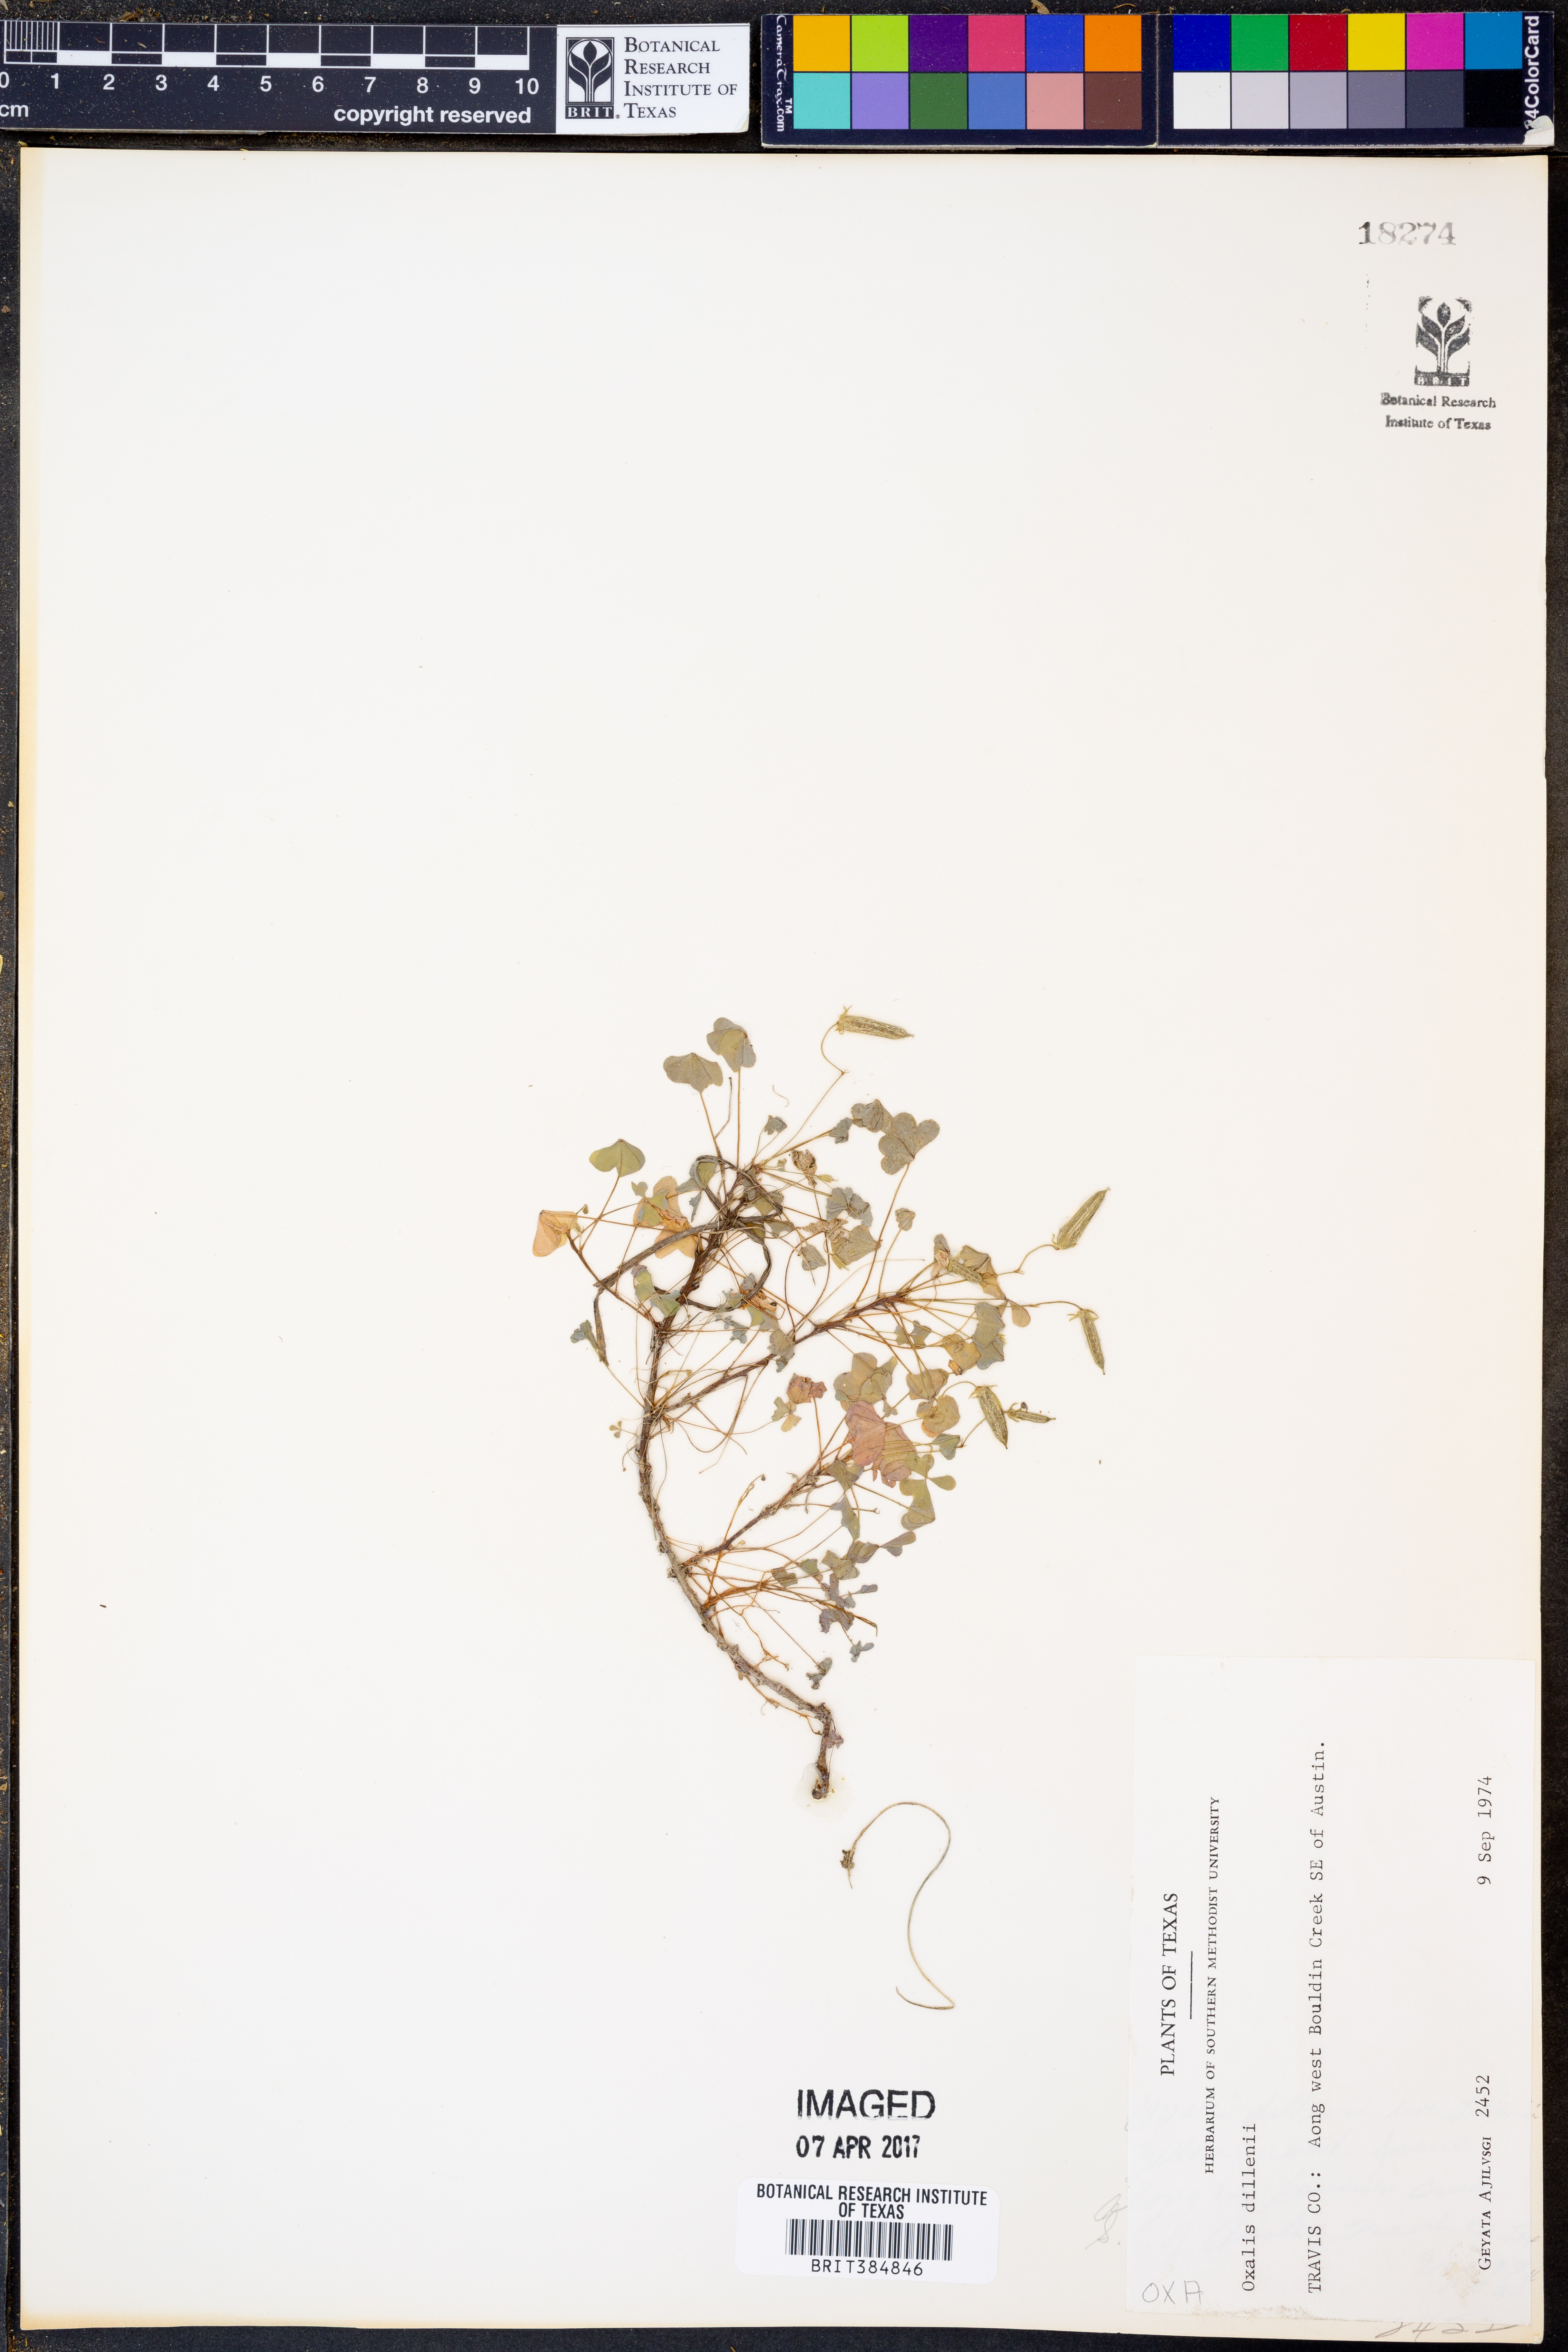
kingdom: Plantae
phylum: Tracheophyta
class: Magnoliopsida
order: Oxalidales
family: Oxalidaceae
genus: Oxalis
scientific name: Oxalis dillenii
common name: Sussex yellow-sorrel
